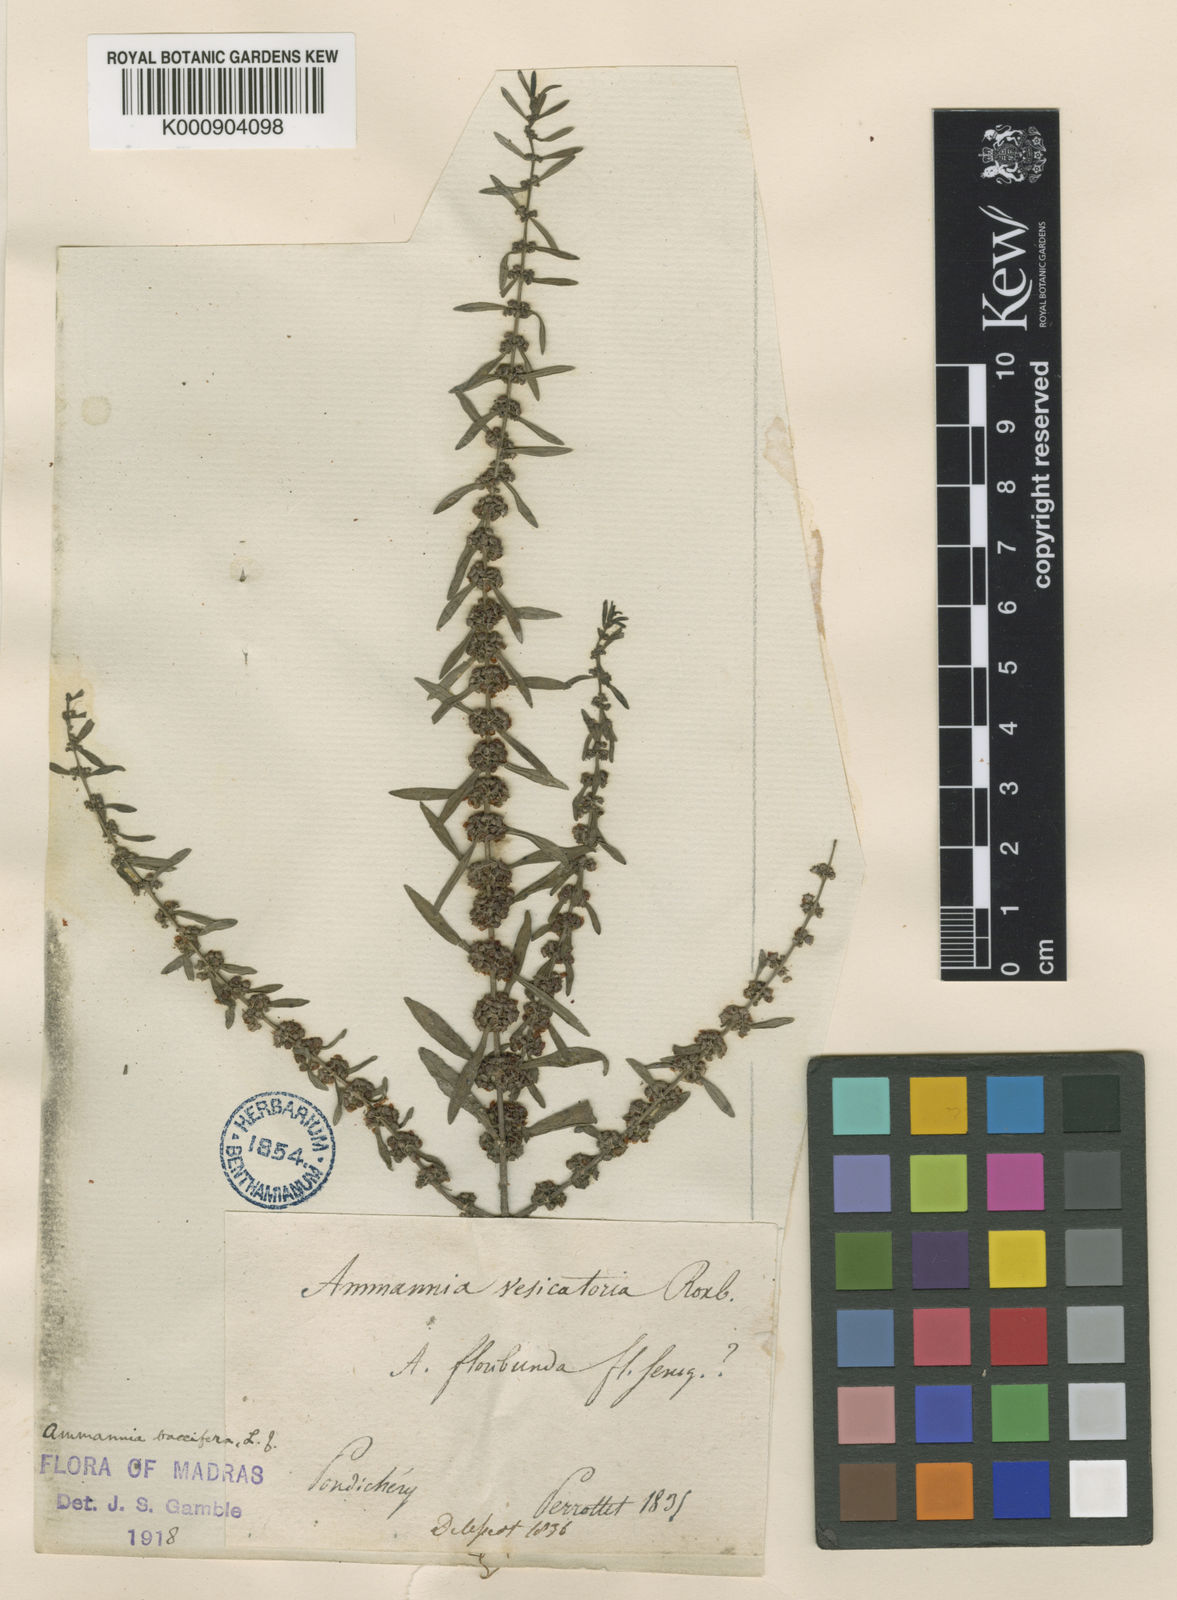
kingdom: Plantae
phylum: Tracheophyta
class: Magnoliopsida
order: Myrtales
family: Lythraceae
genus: Ammannia
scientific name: Ammannia baccifera
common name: Blistering ammania
